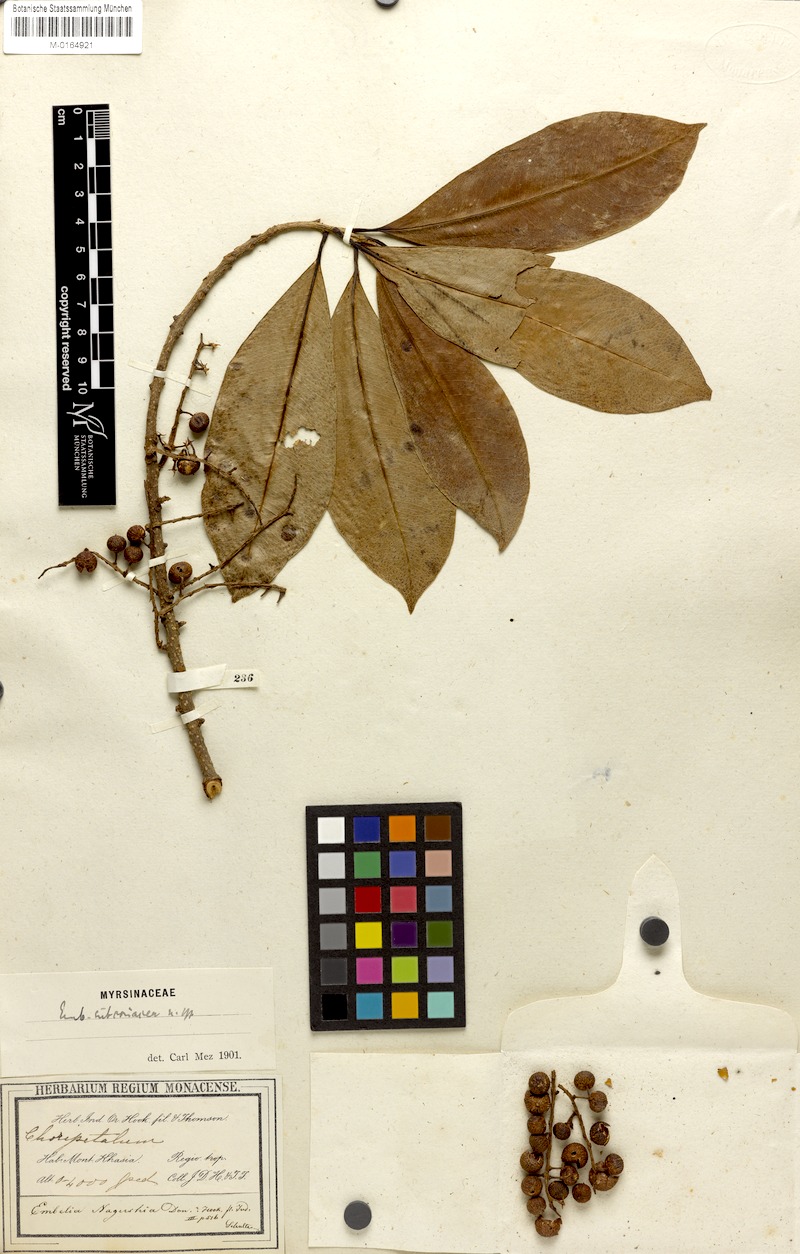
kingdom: Plantae
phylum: Tracheophyta
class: Magnoliopsida
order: Ericales
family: Primulaceae
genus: Embelia
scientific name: Embelia subcoriacea
